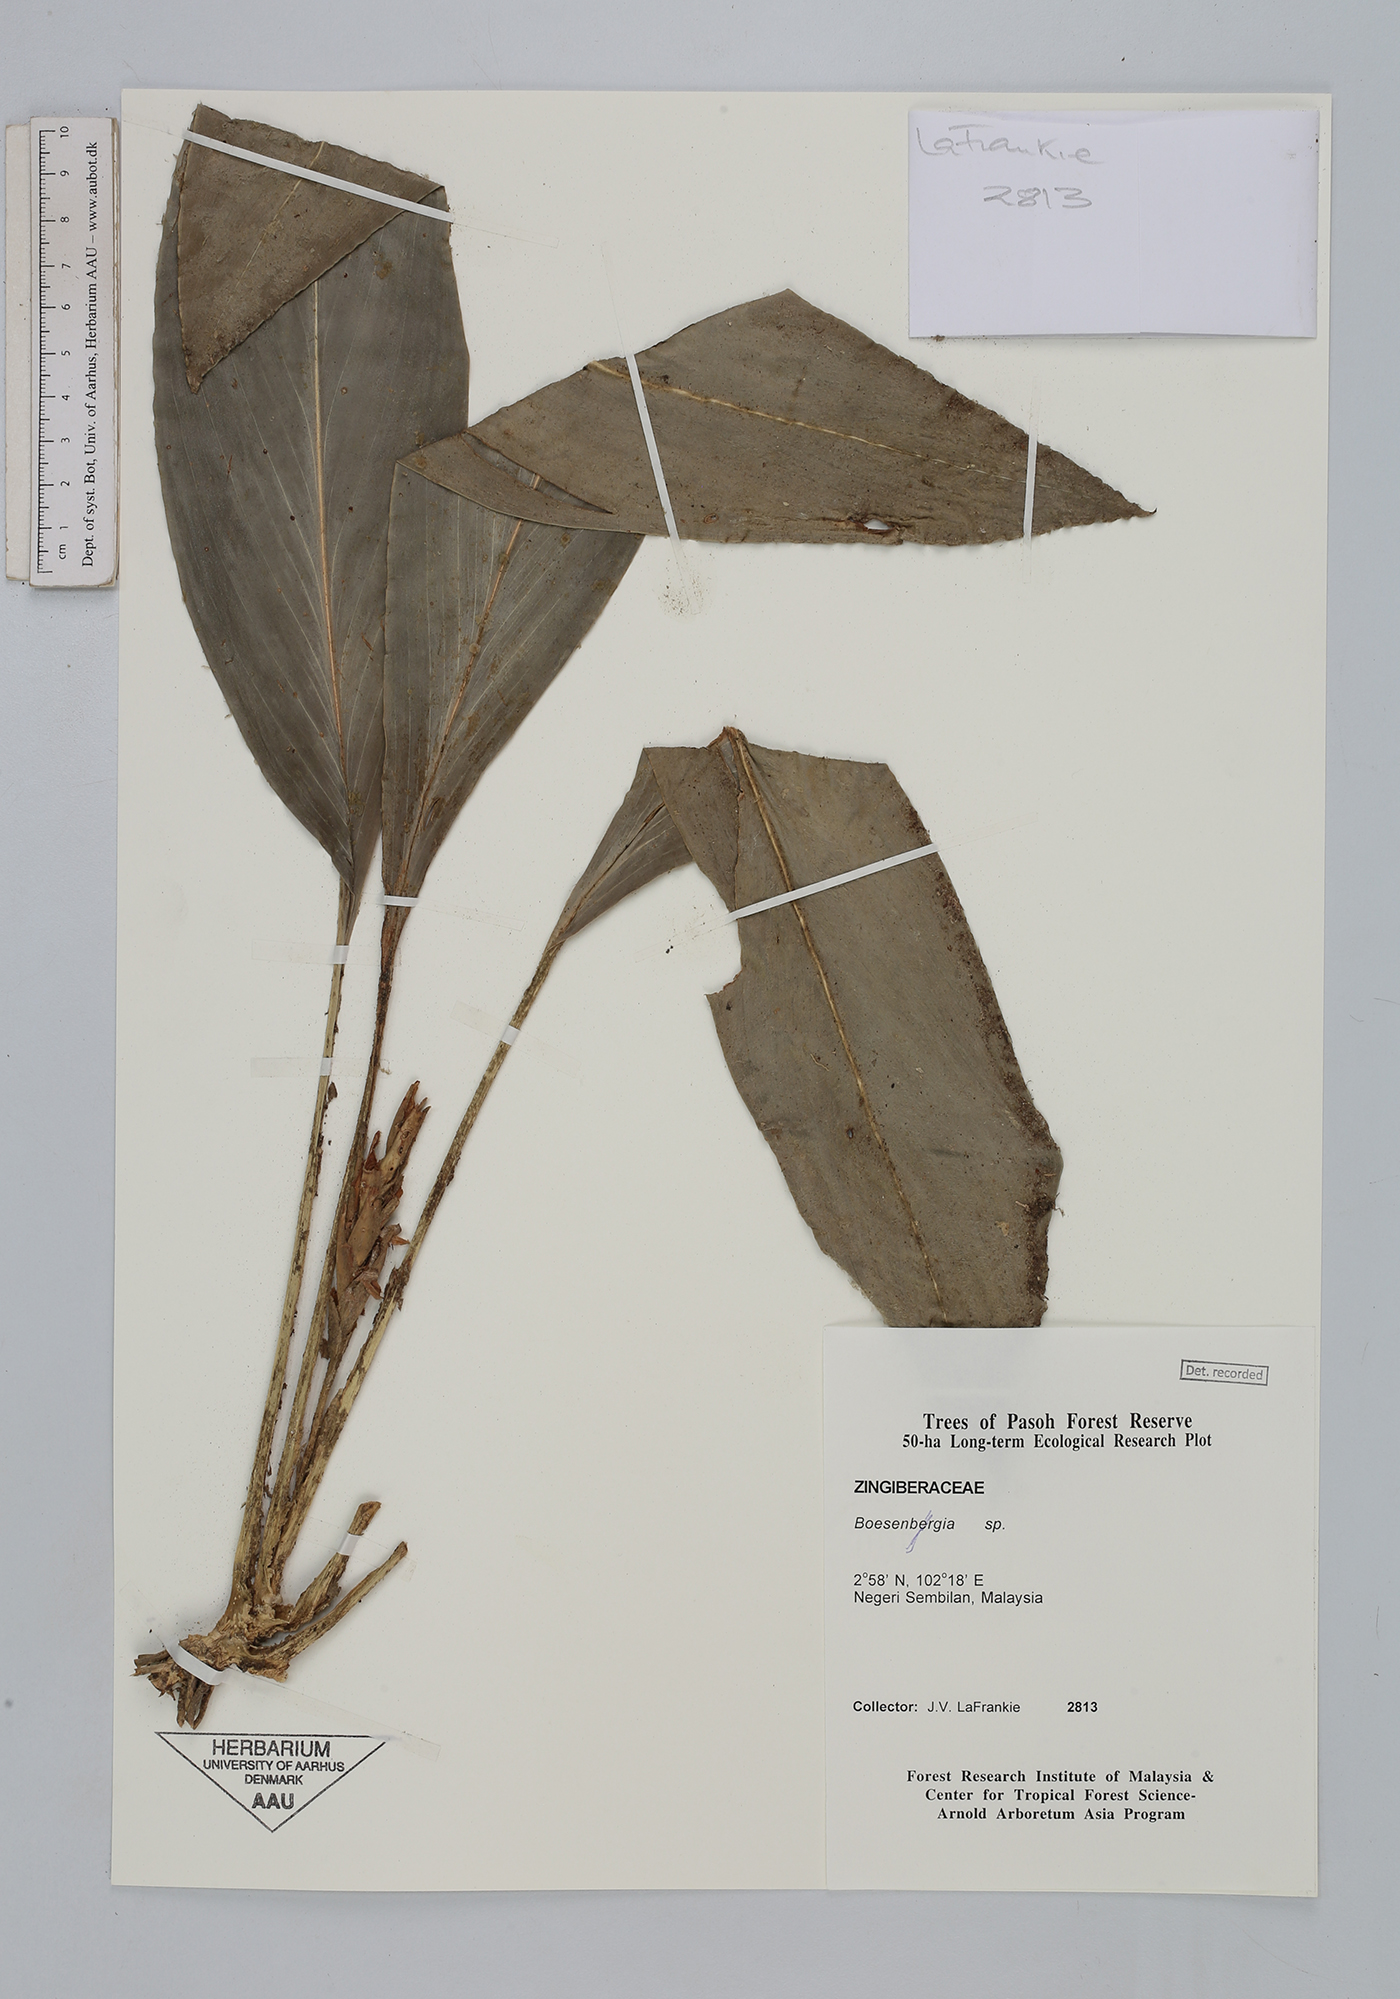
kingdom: Plantae
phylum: Tracheophyta
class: Liliopsida
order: Zingiberales
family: Zingiberaceae
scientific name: Zingiberaceae
